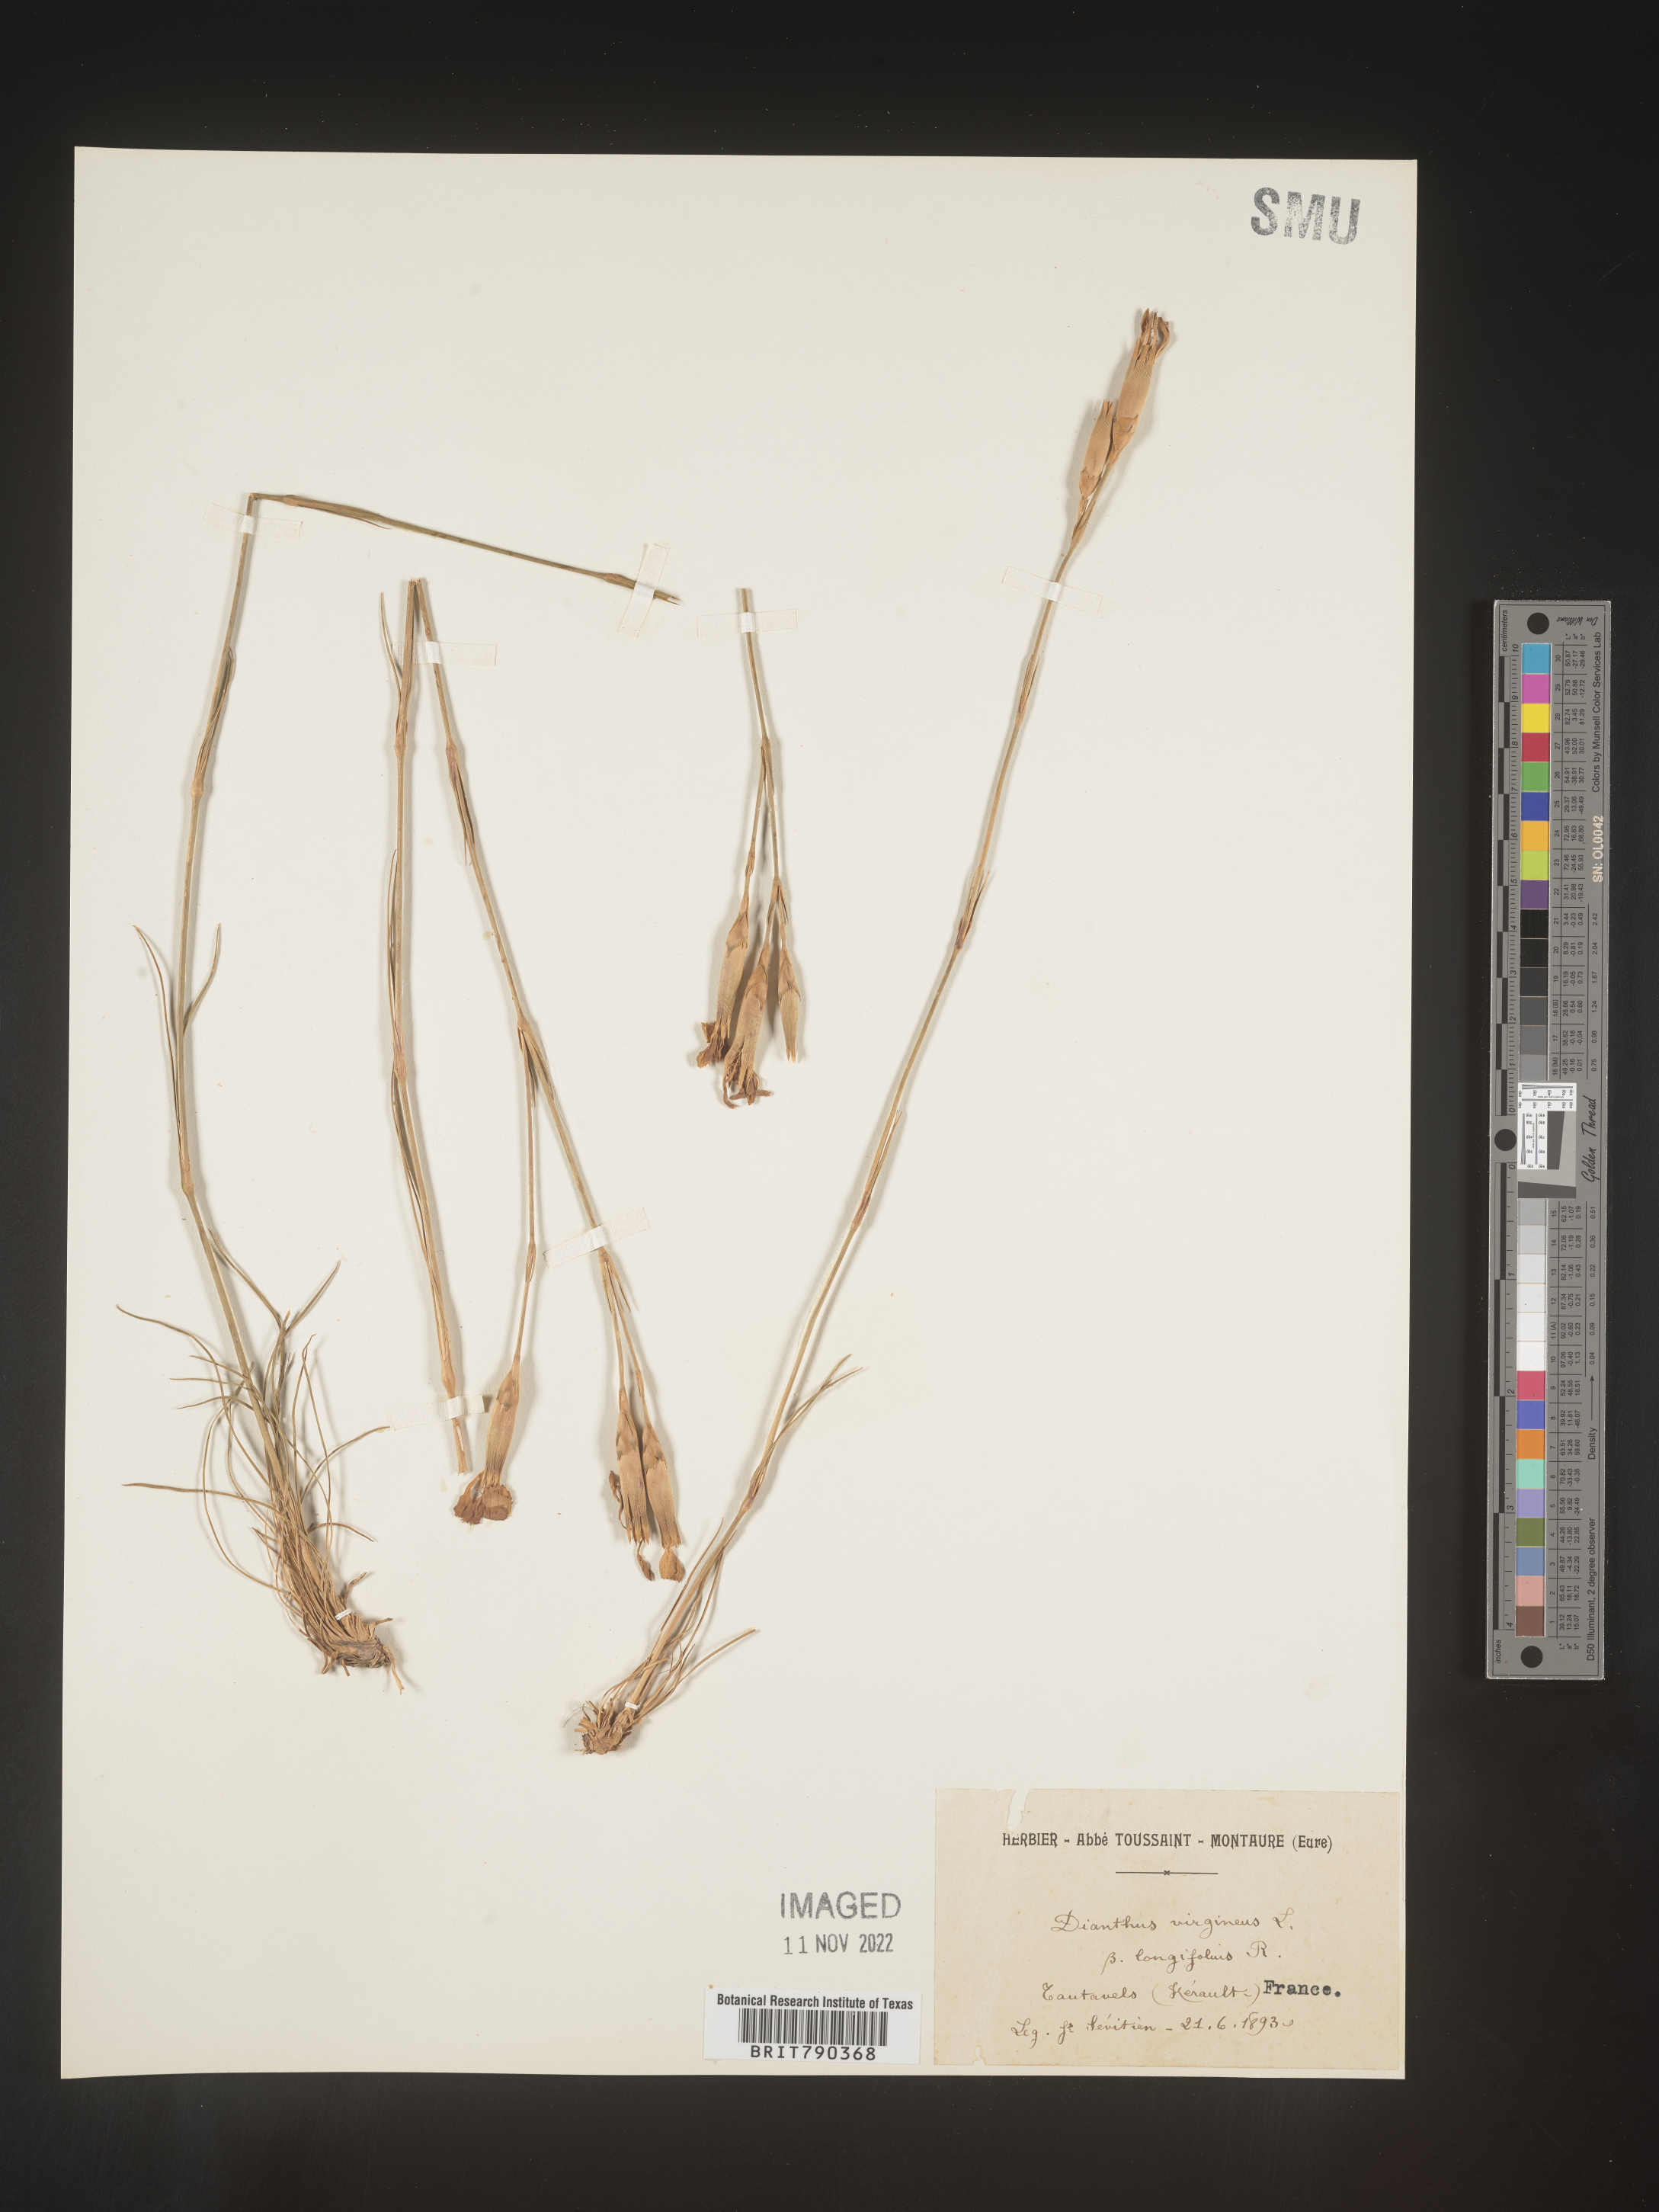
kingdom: Plantae
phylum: Tracheophyta
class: Magnoliopsida
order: Caryophyllales
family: Caryophyllaceae
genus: Dianthus
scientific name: Dianthus
